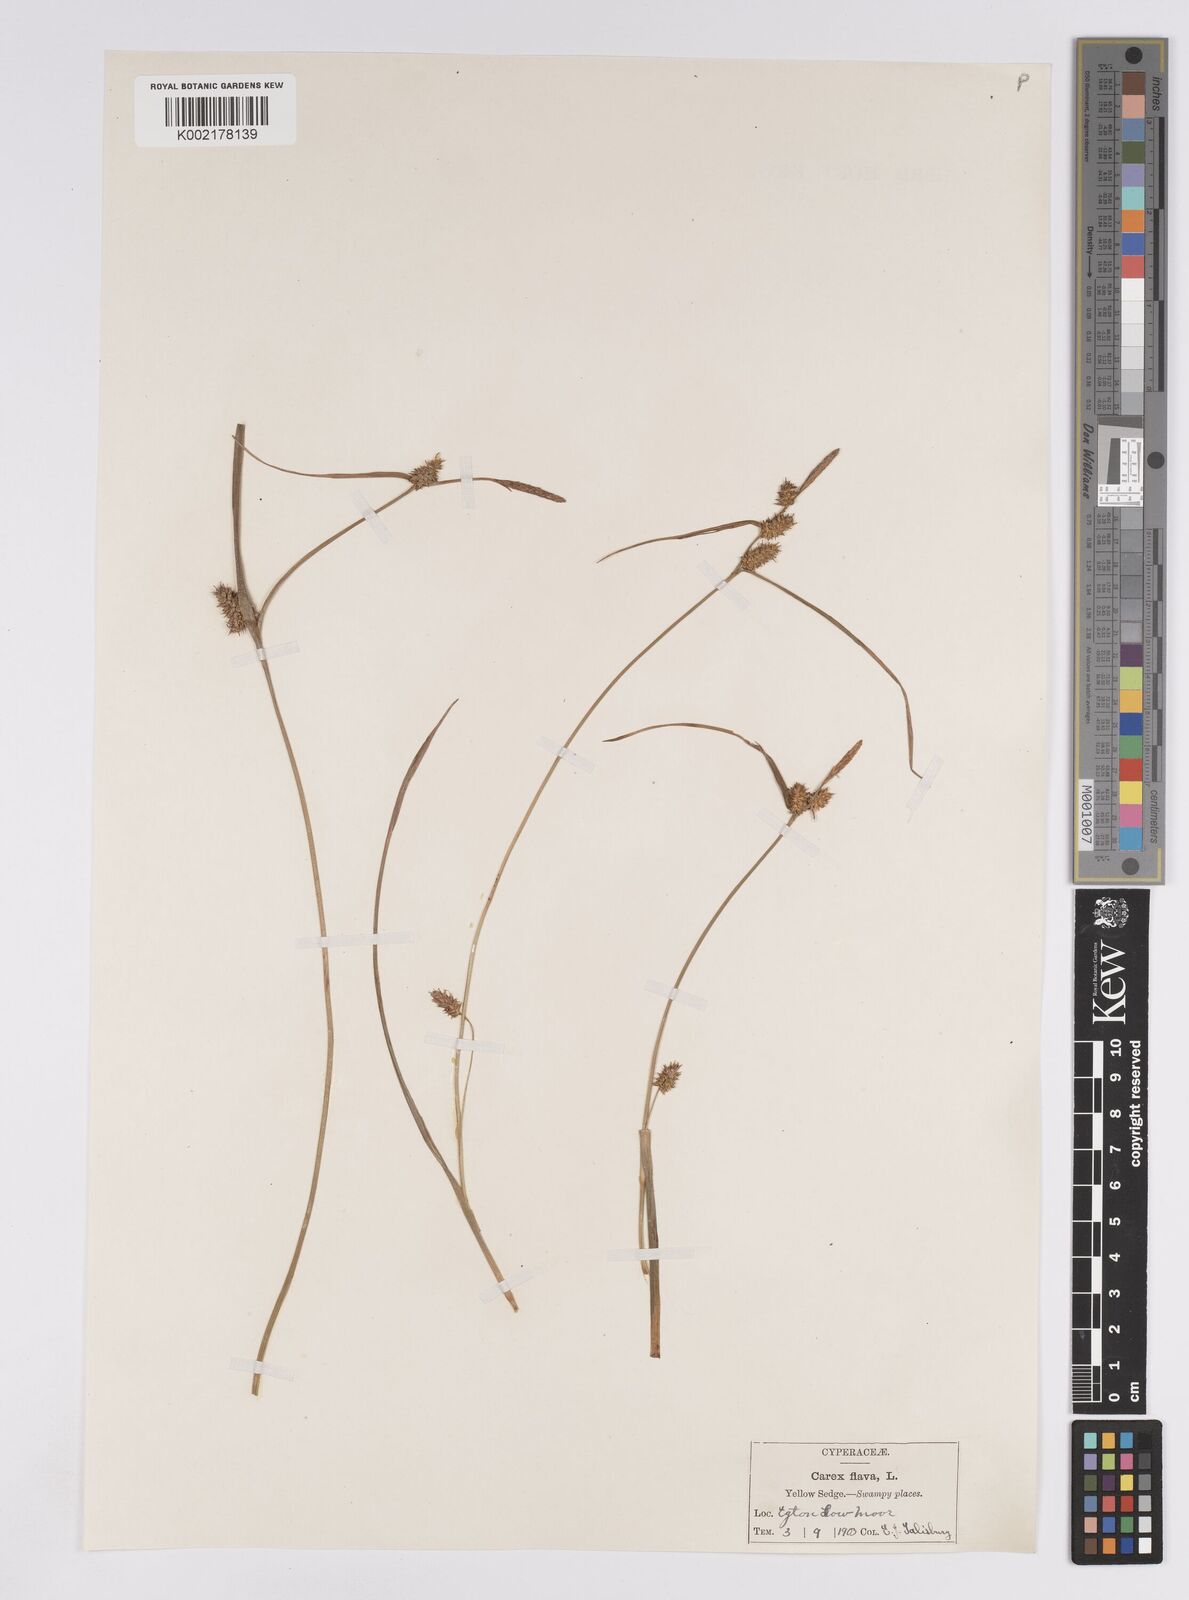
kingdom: Plantae
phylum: Tracheophyta
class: Liliopsida
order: Poales
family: Cyperaceae
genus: Carex
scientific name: Carex demissa
